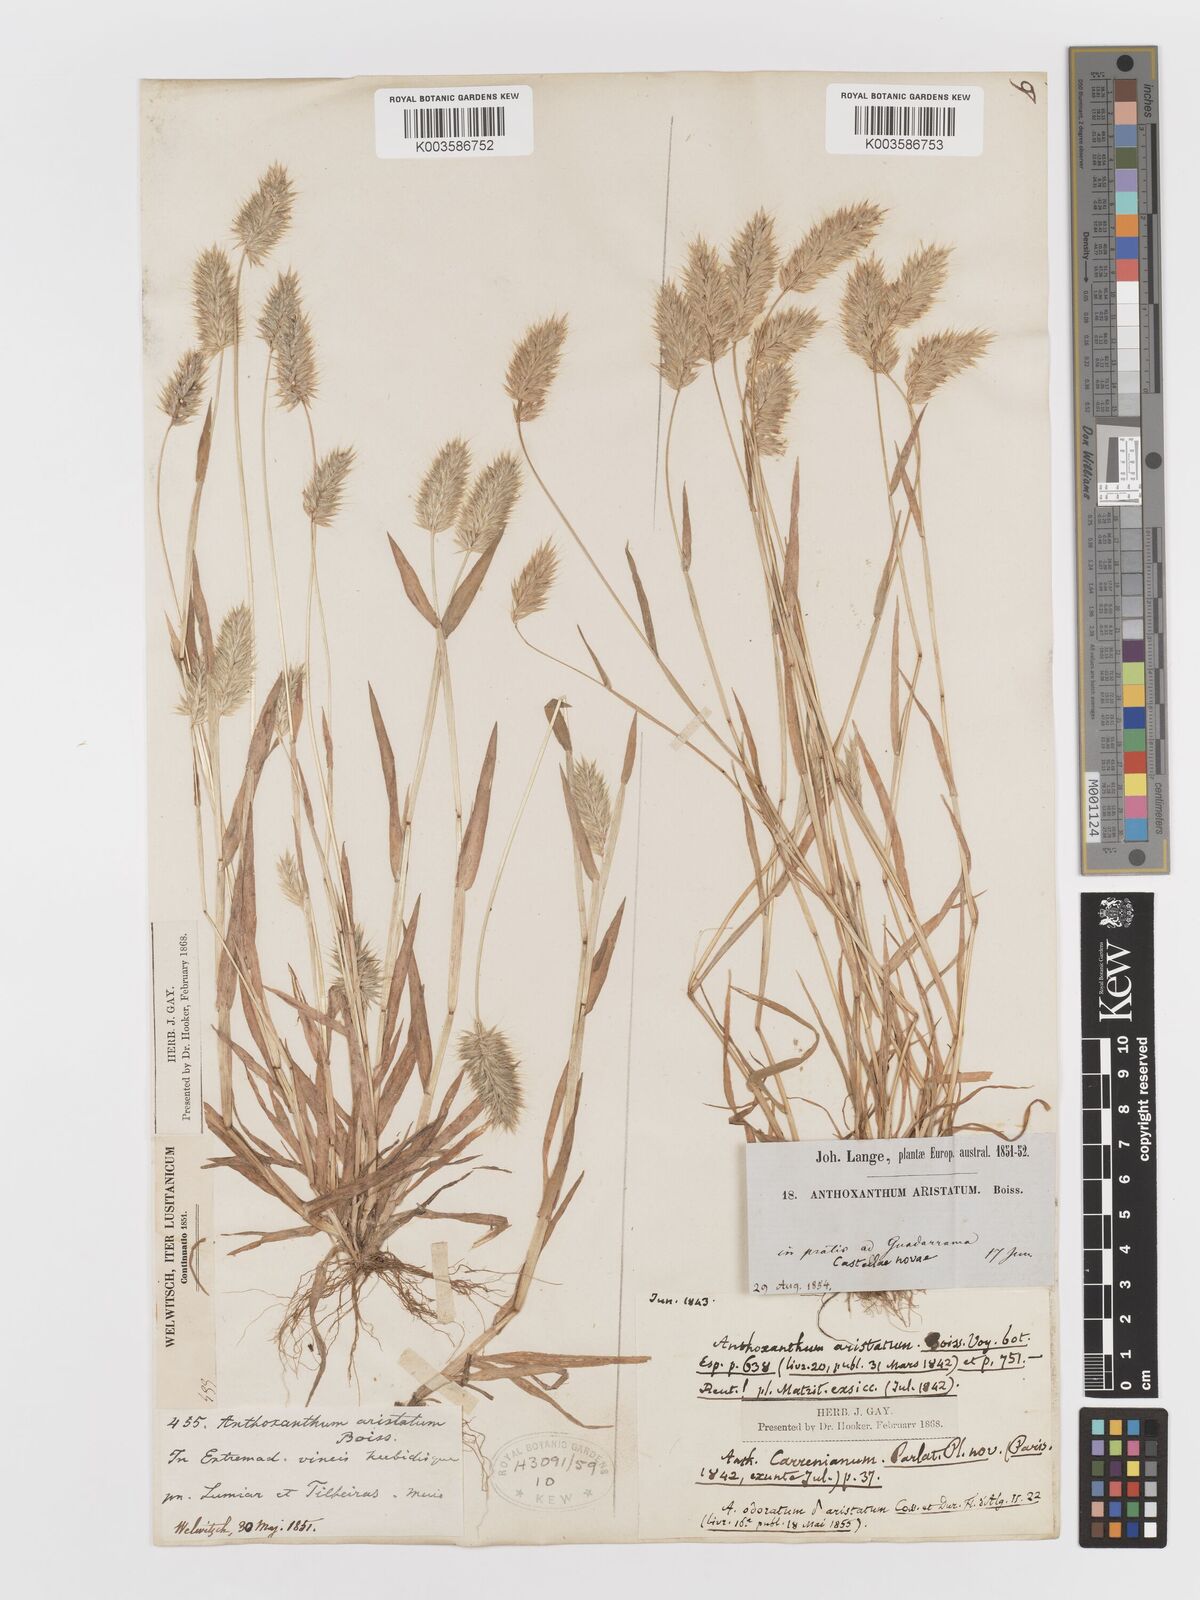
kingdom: Plantae
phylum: Tracheophyta
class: Liliopsida
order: Poales
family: Poaceae
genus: Anthoxanthum
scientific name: Anthoxanthum aristatum
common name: Annual vernal-grass
